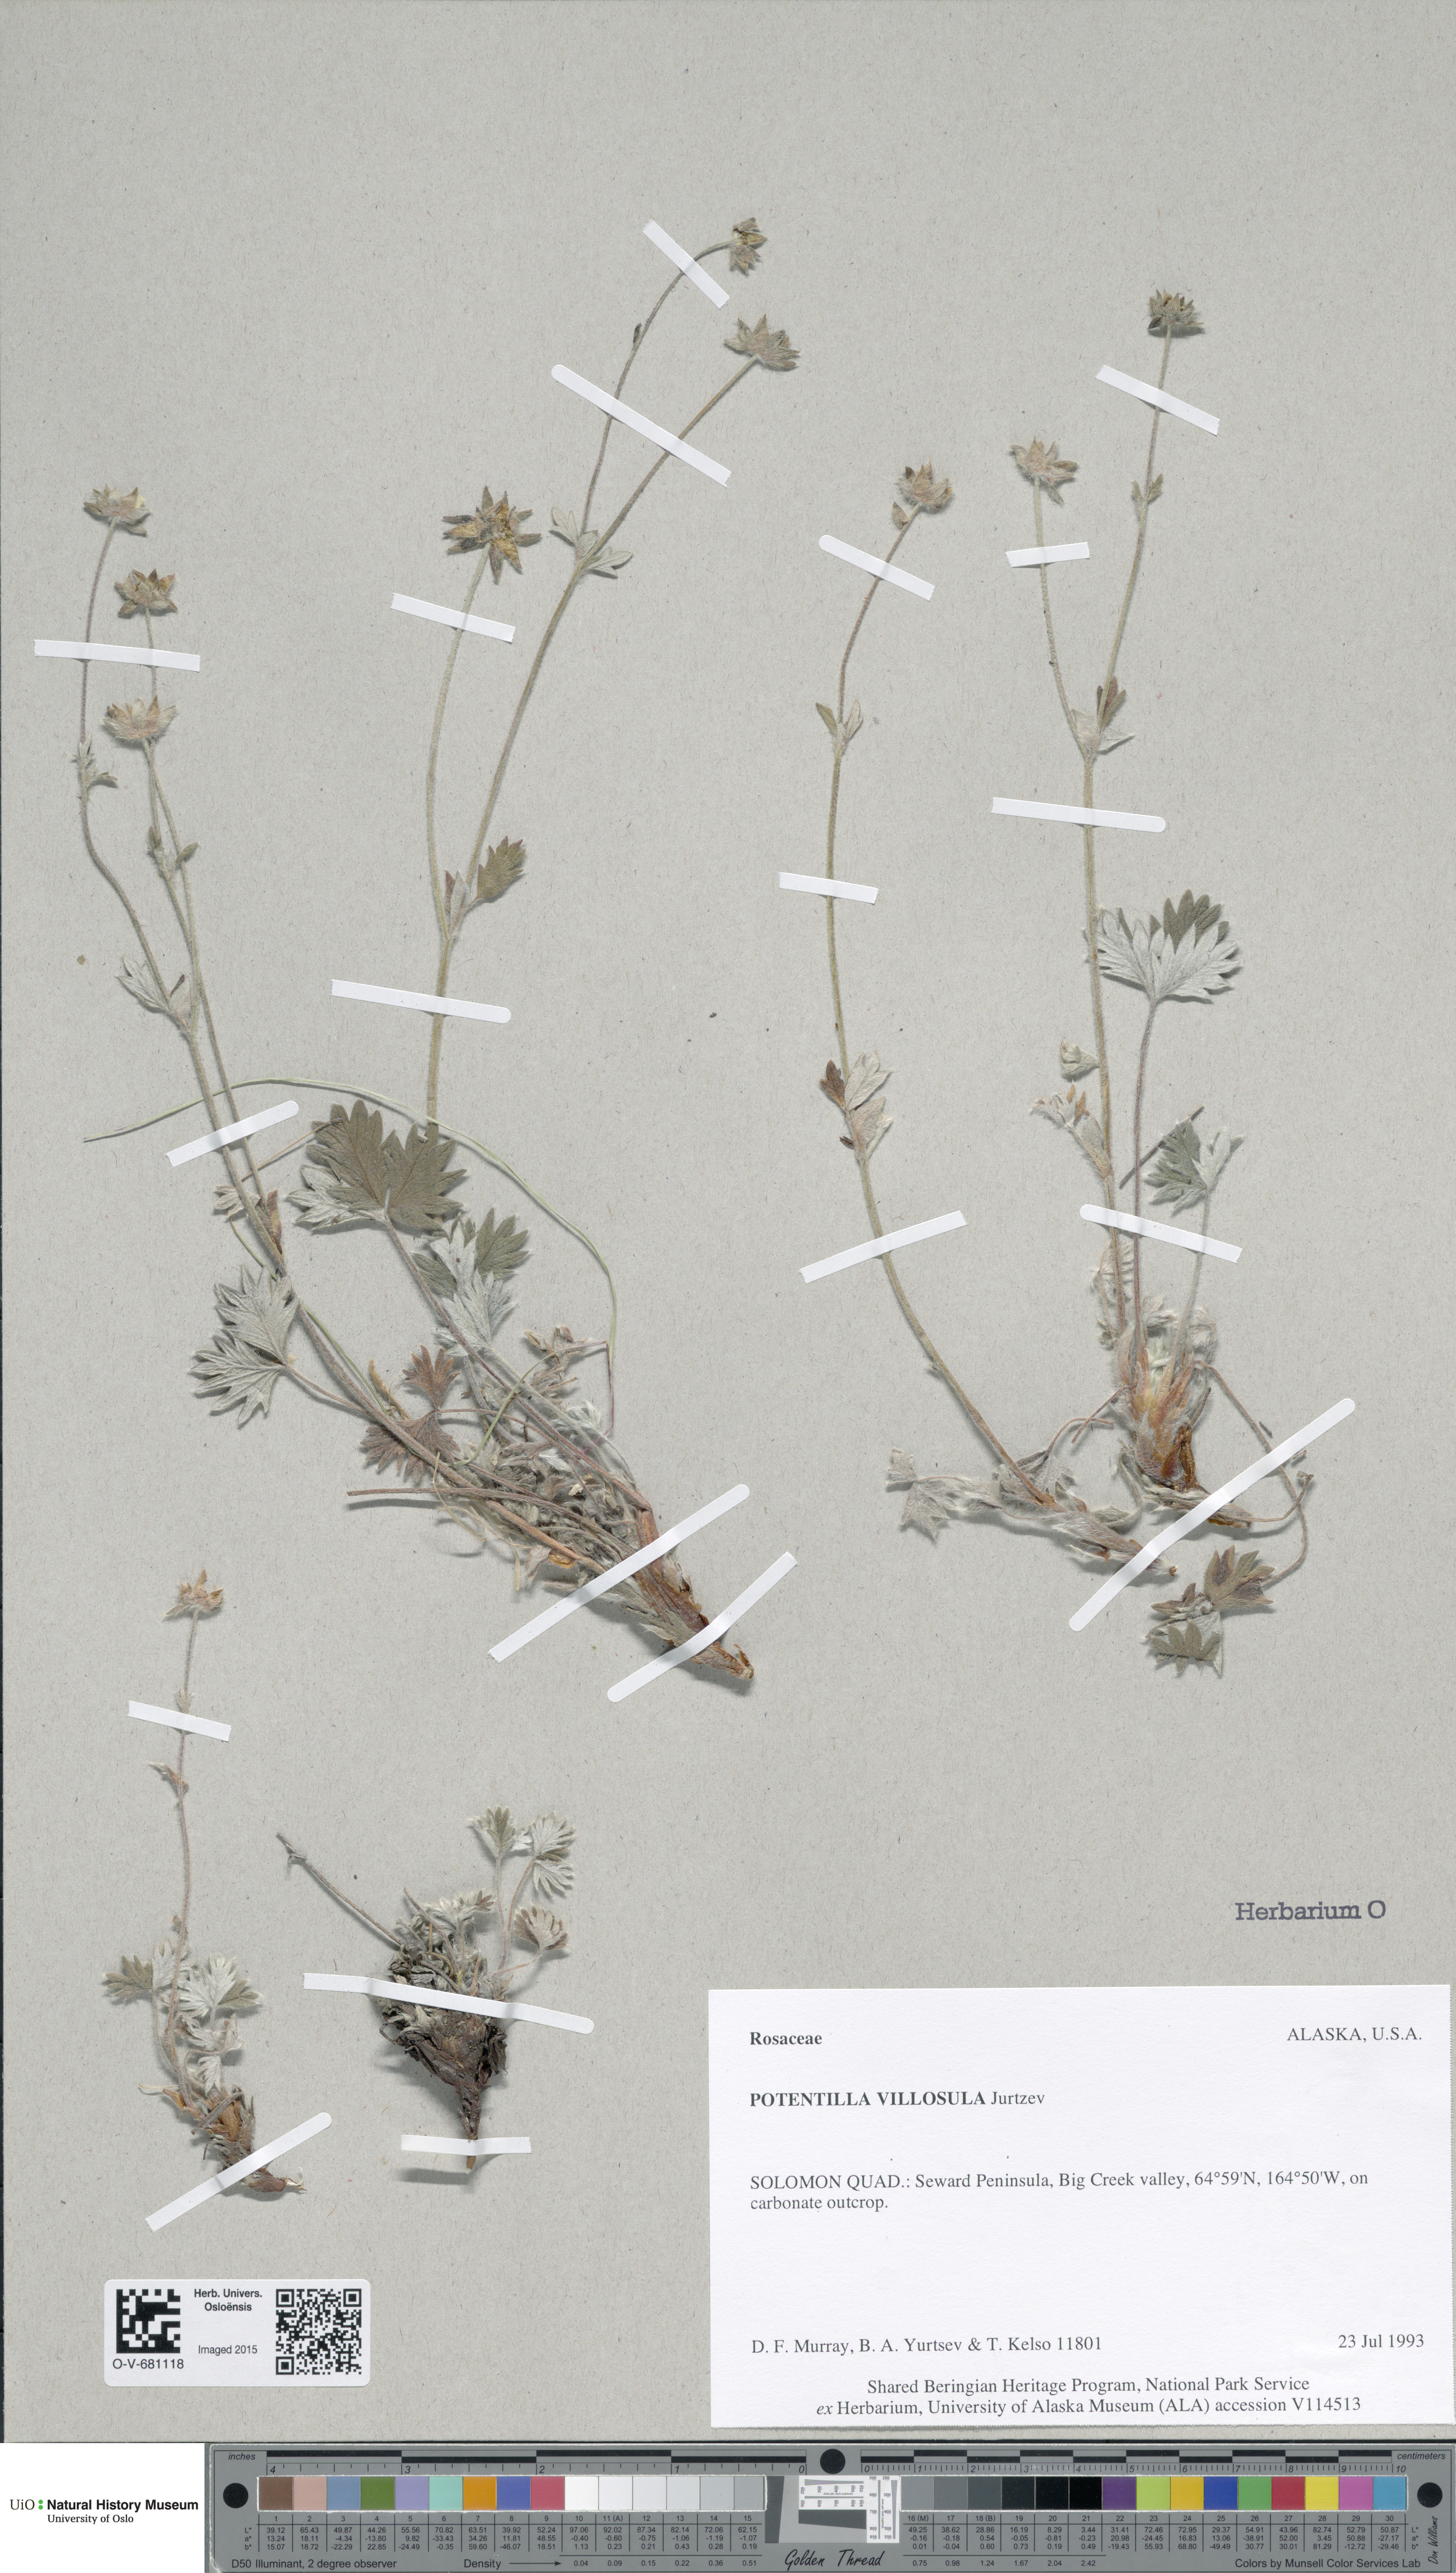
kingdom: Plantae
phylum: Tracheophyta
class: Magnoliopsida
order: Rosales
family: Rosaceae
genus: Potentilla
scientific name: Potentilla villosula
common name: Finely villous cinquefoil
